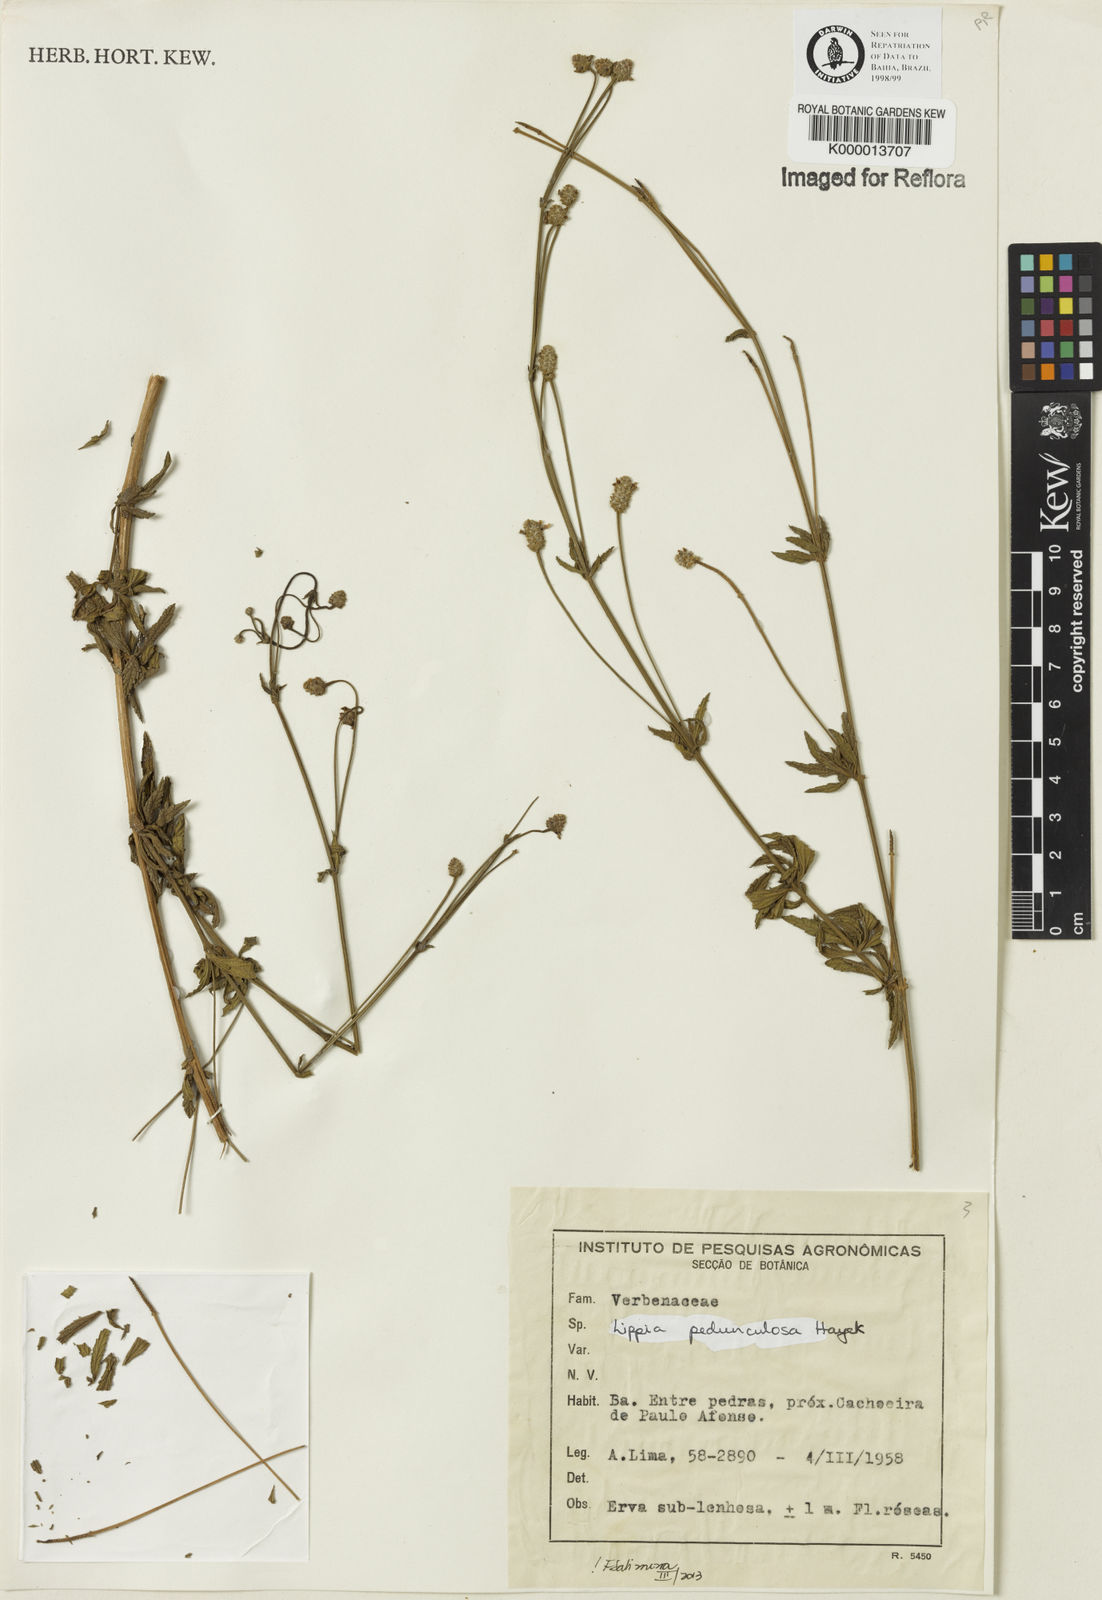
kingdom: Plantae
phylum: Tracheophyta
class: Magnoliopsida
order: Lamiales
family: Verbenaceae
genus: Lippia
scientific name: Lippia pedunculosa
